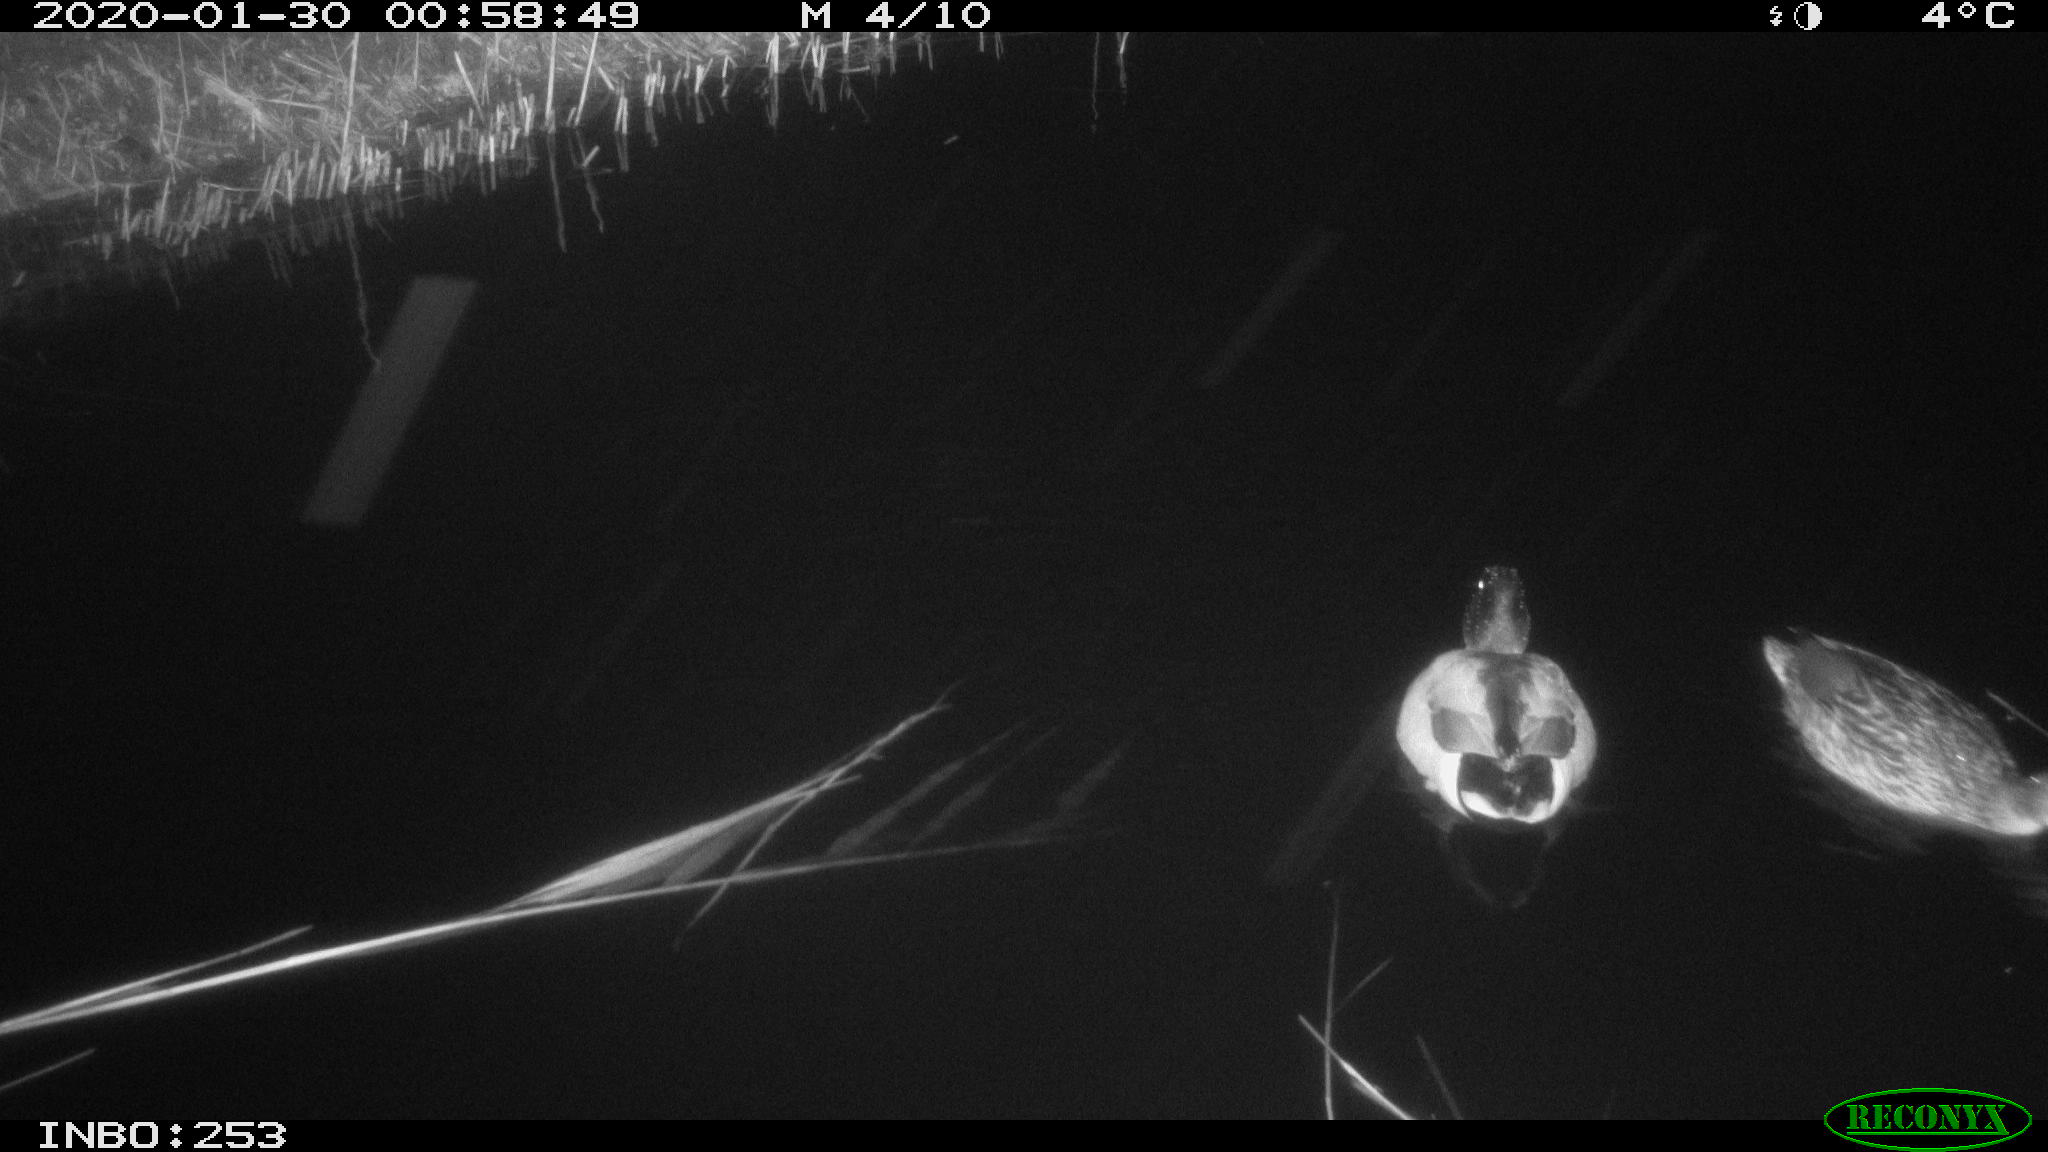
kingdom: Animalia
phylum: Chordata
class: Aves
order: Anseriformes
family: Anatidae
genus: Anas
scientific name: Anas platyrhynchos
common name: Mallard
